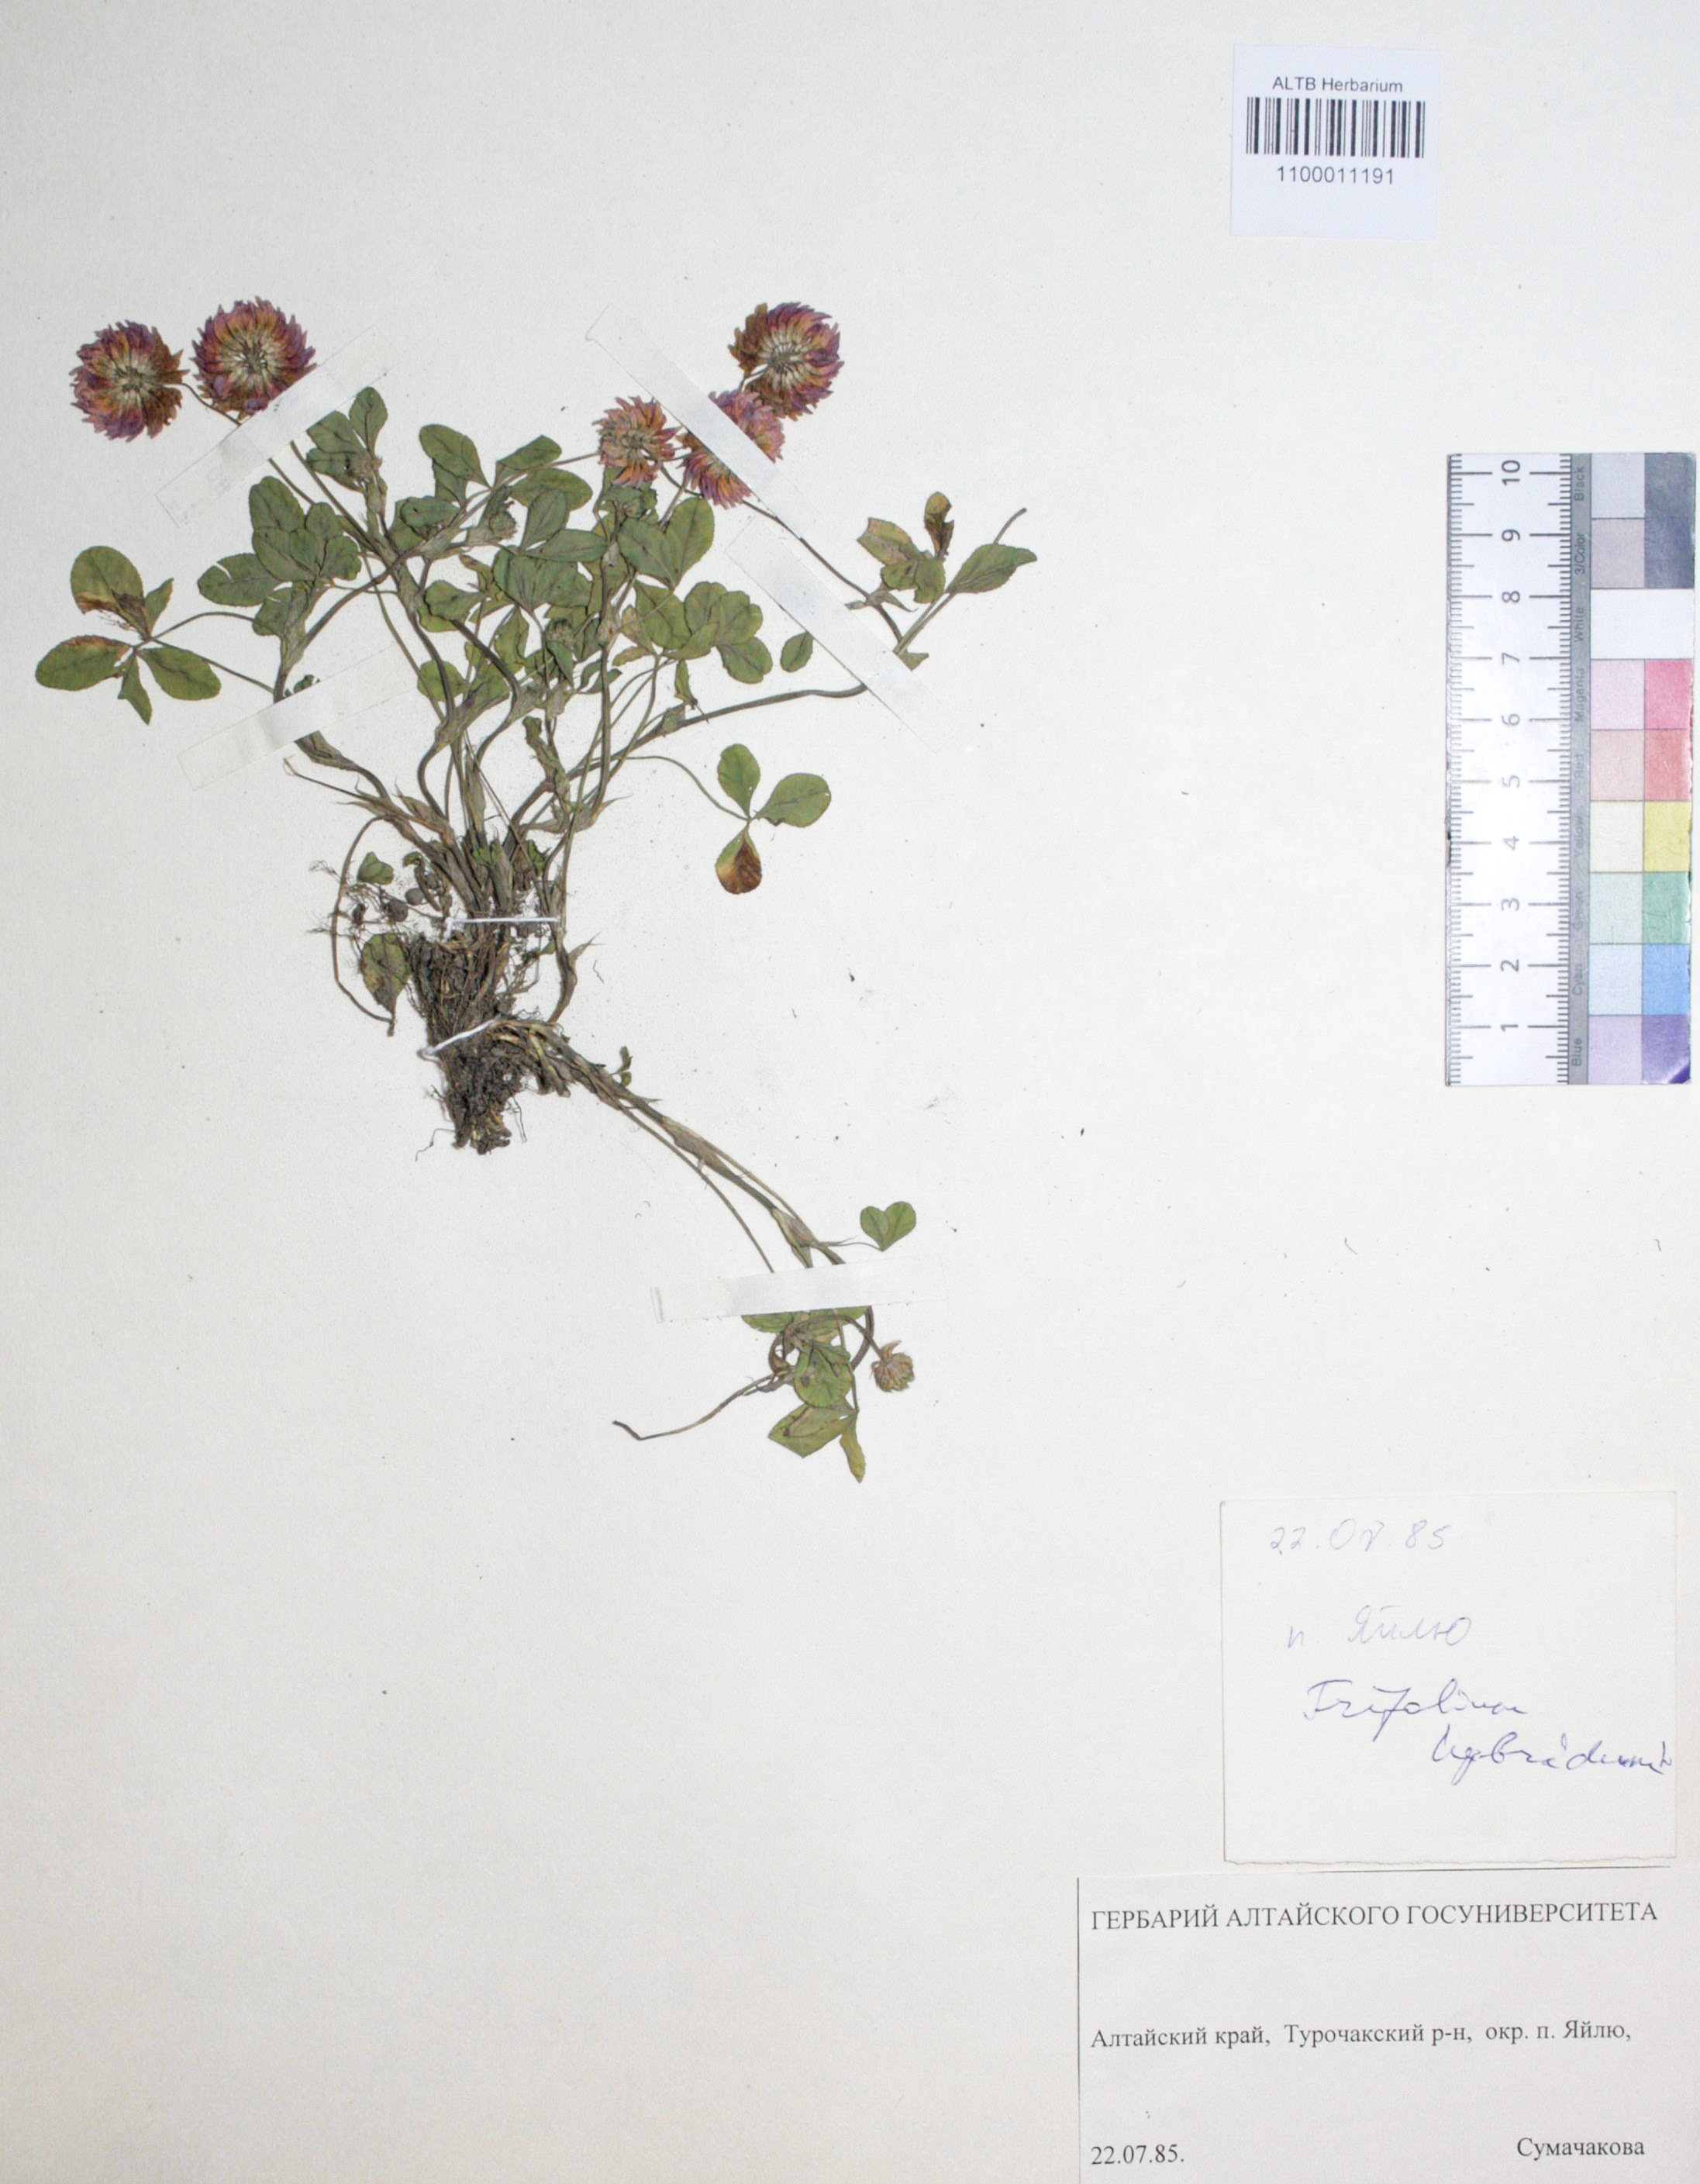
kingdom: Plantae
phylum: Tracheophyta
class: Magnoliopsida
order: Fabales
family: Fabaceae
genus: Trifolium
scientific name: Trifolium hybridum
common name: Alsike clover
